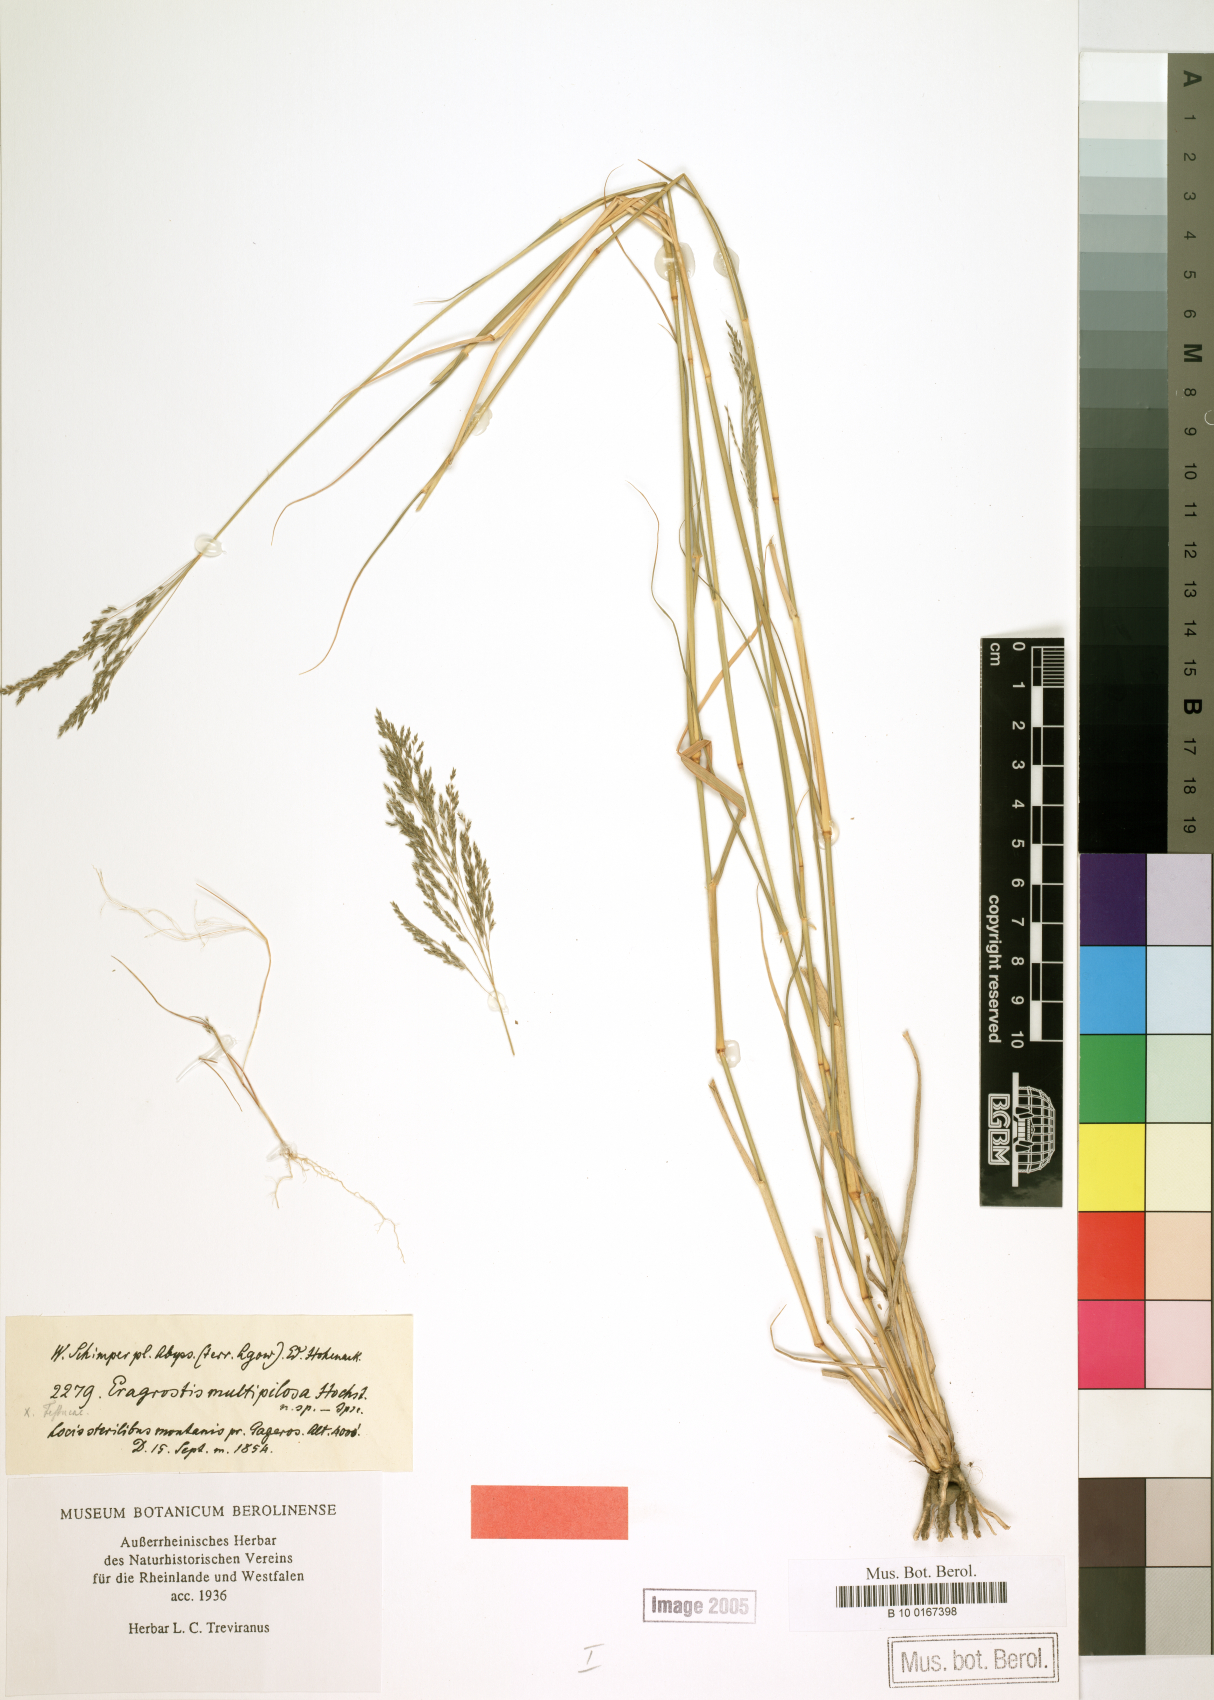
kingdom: Plantae
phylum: Tracheophyta
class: Liliopsida
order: Poales
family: Poaceae
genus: Eragrostis
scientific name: Eragrostis cylindriflora
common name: Cylinderflower lovegrass
